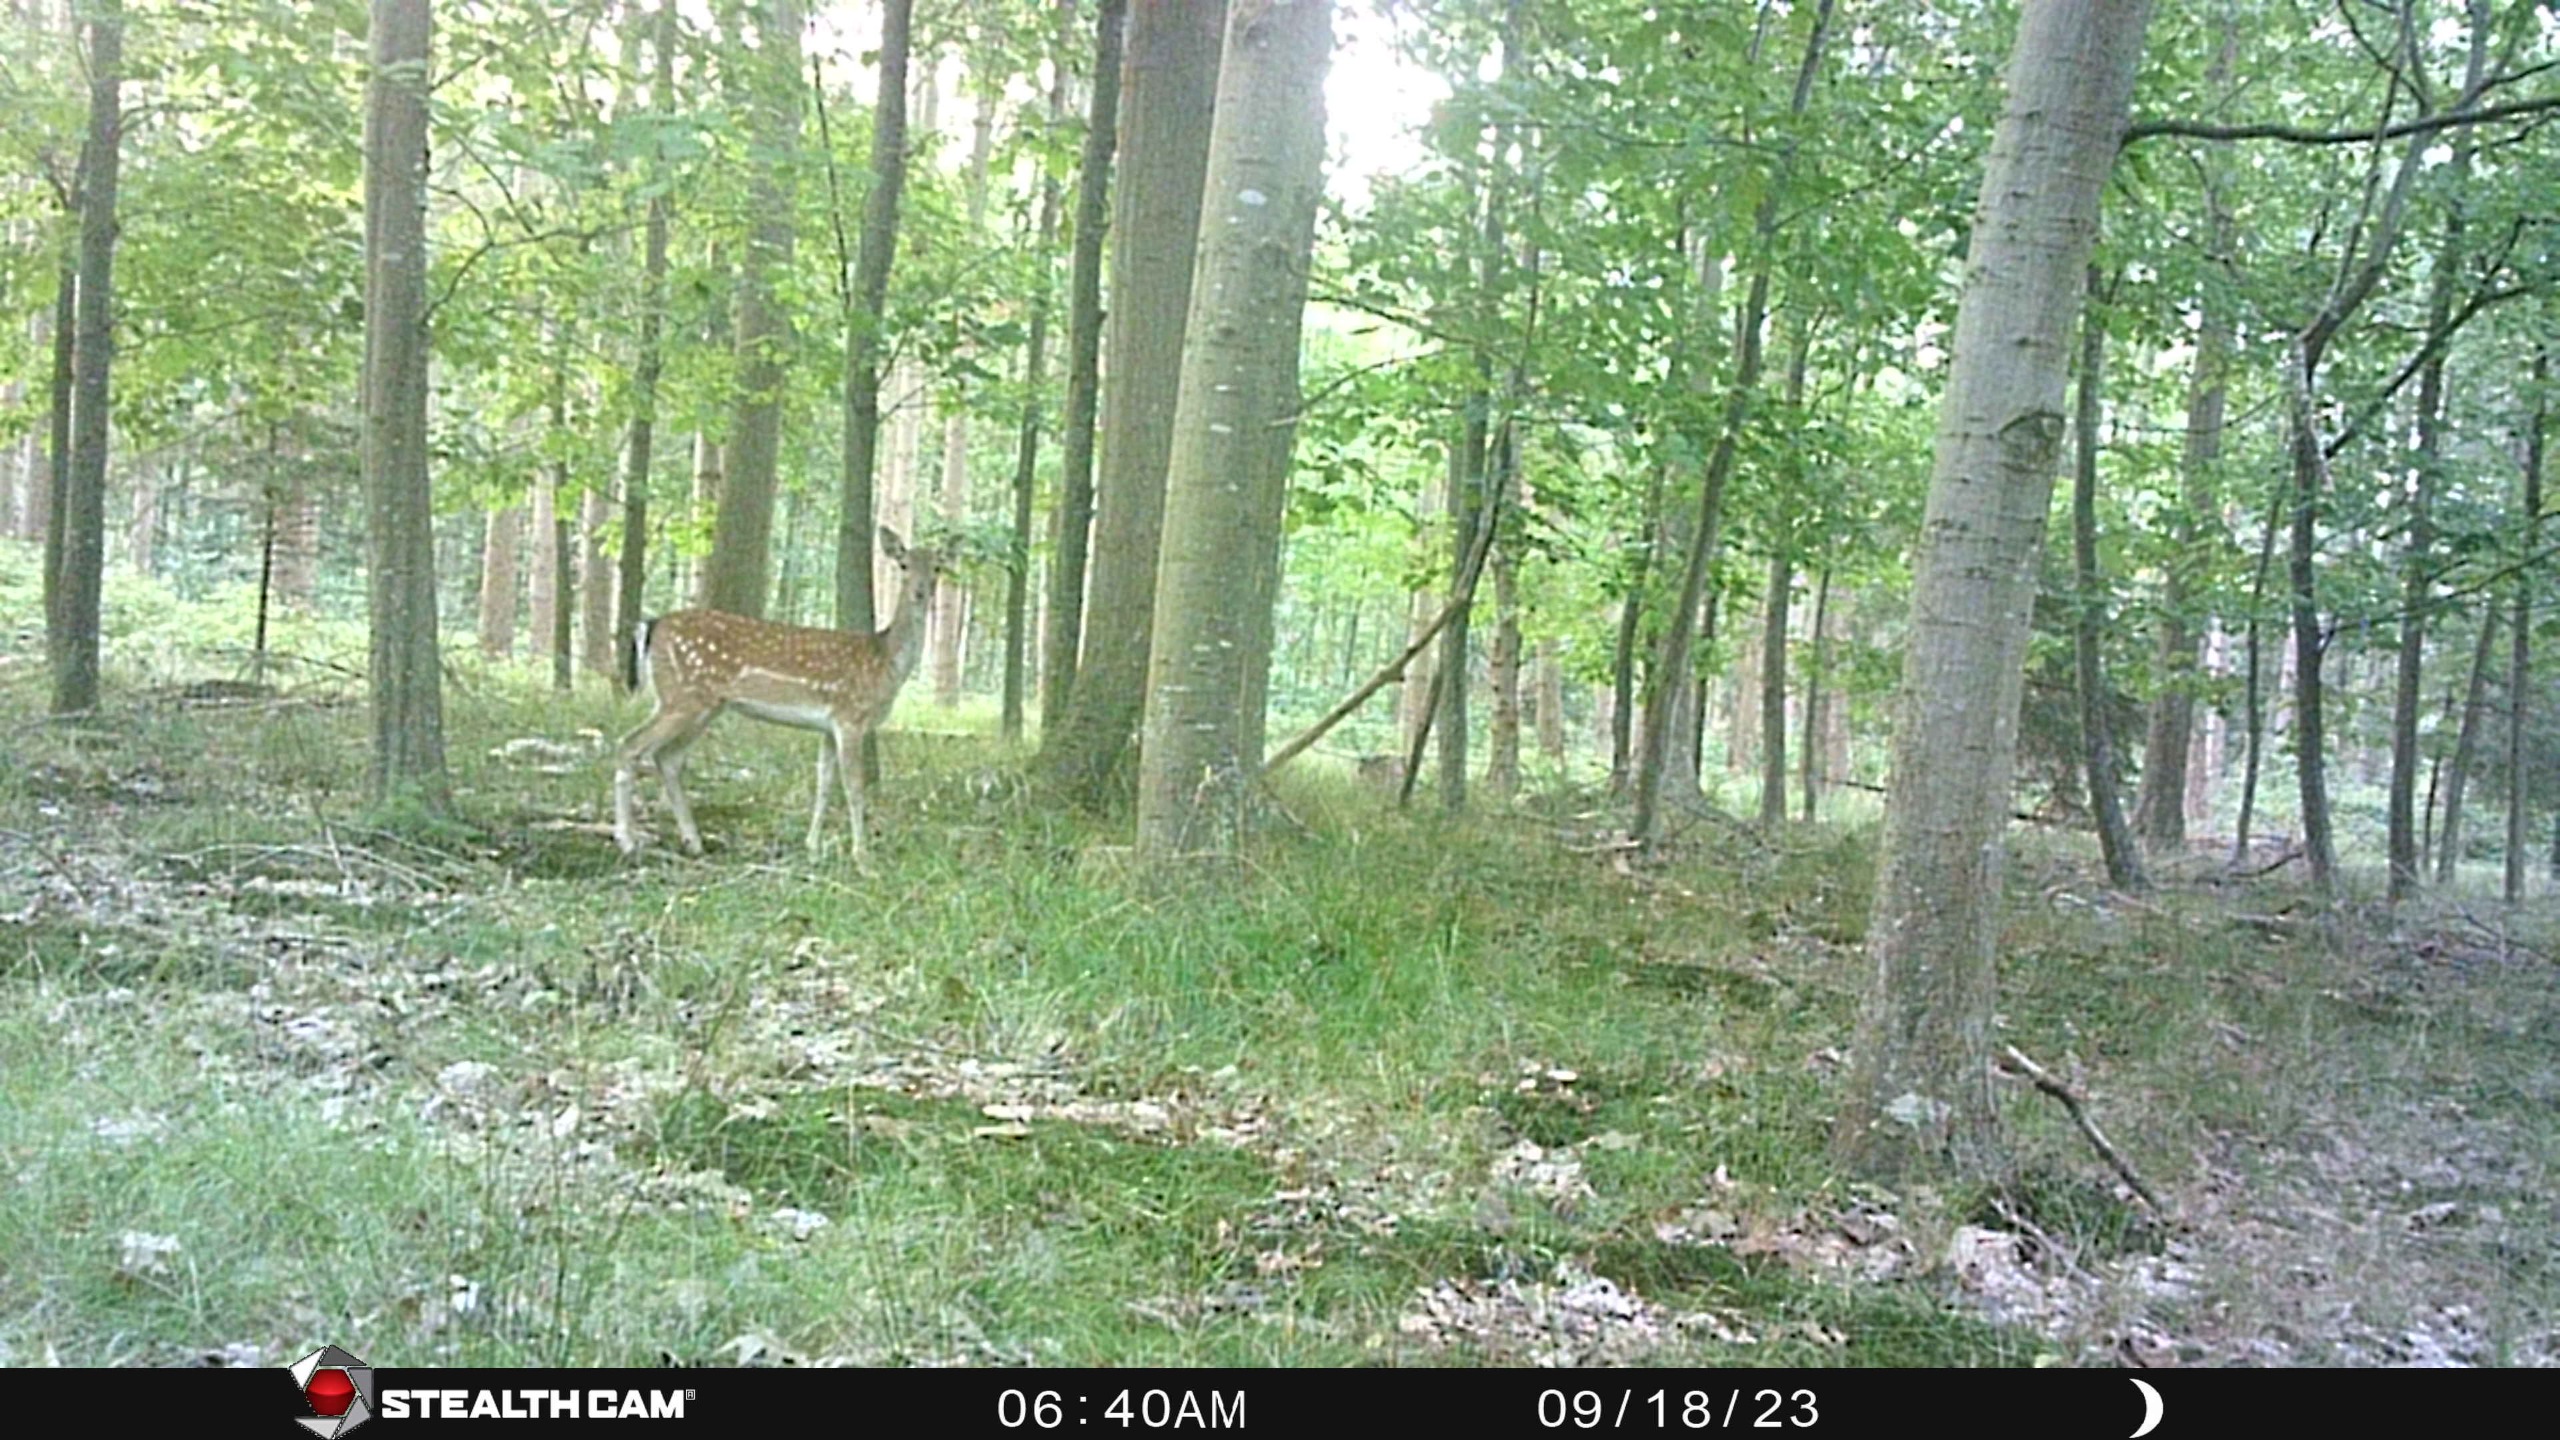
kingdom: Animalia
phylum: Chordata
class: Mammalia
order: Artiodactyla
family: Cervidae
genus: Dama
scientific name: Dama dama
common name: Dådyr
